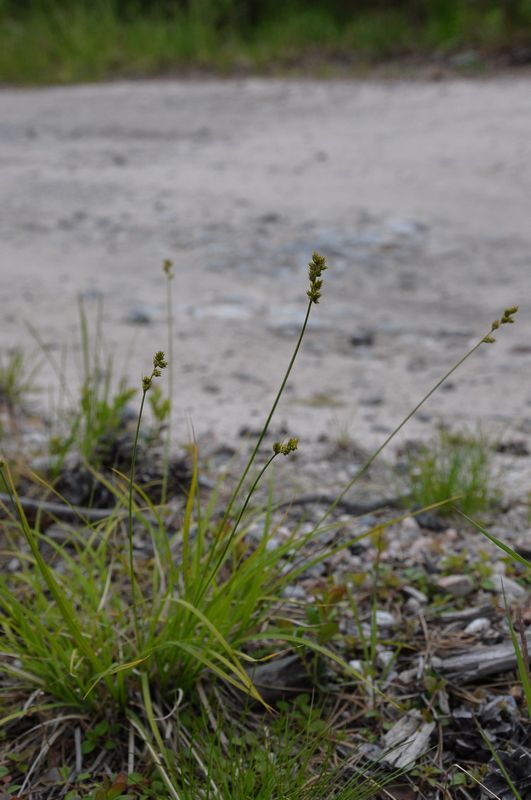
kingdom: Plantae
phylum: Tracheophyta
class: Liliopsida
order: Poales
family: Cyperaceae
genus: Carex
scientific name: Carex brunnescens
